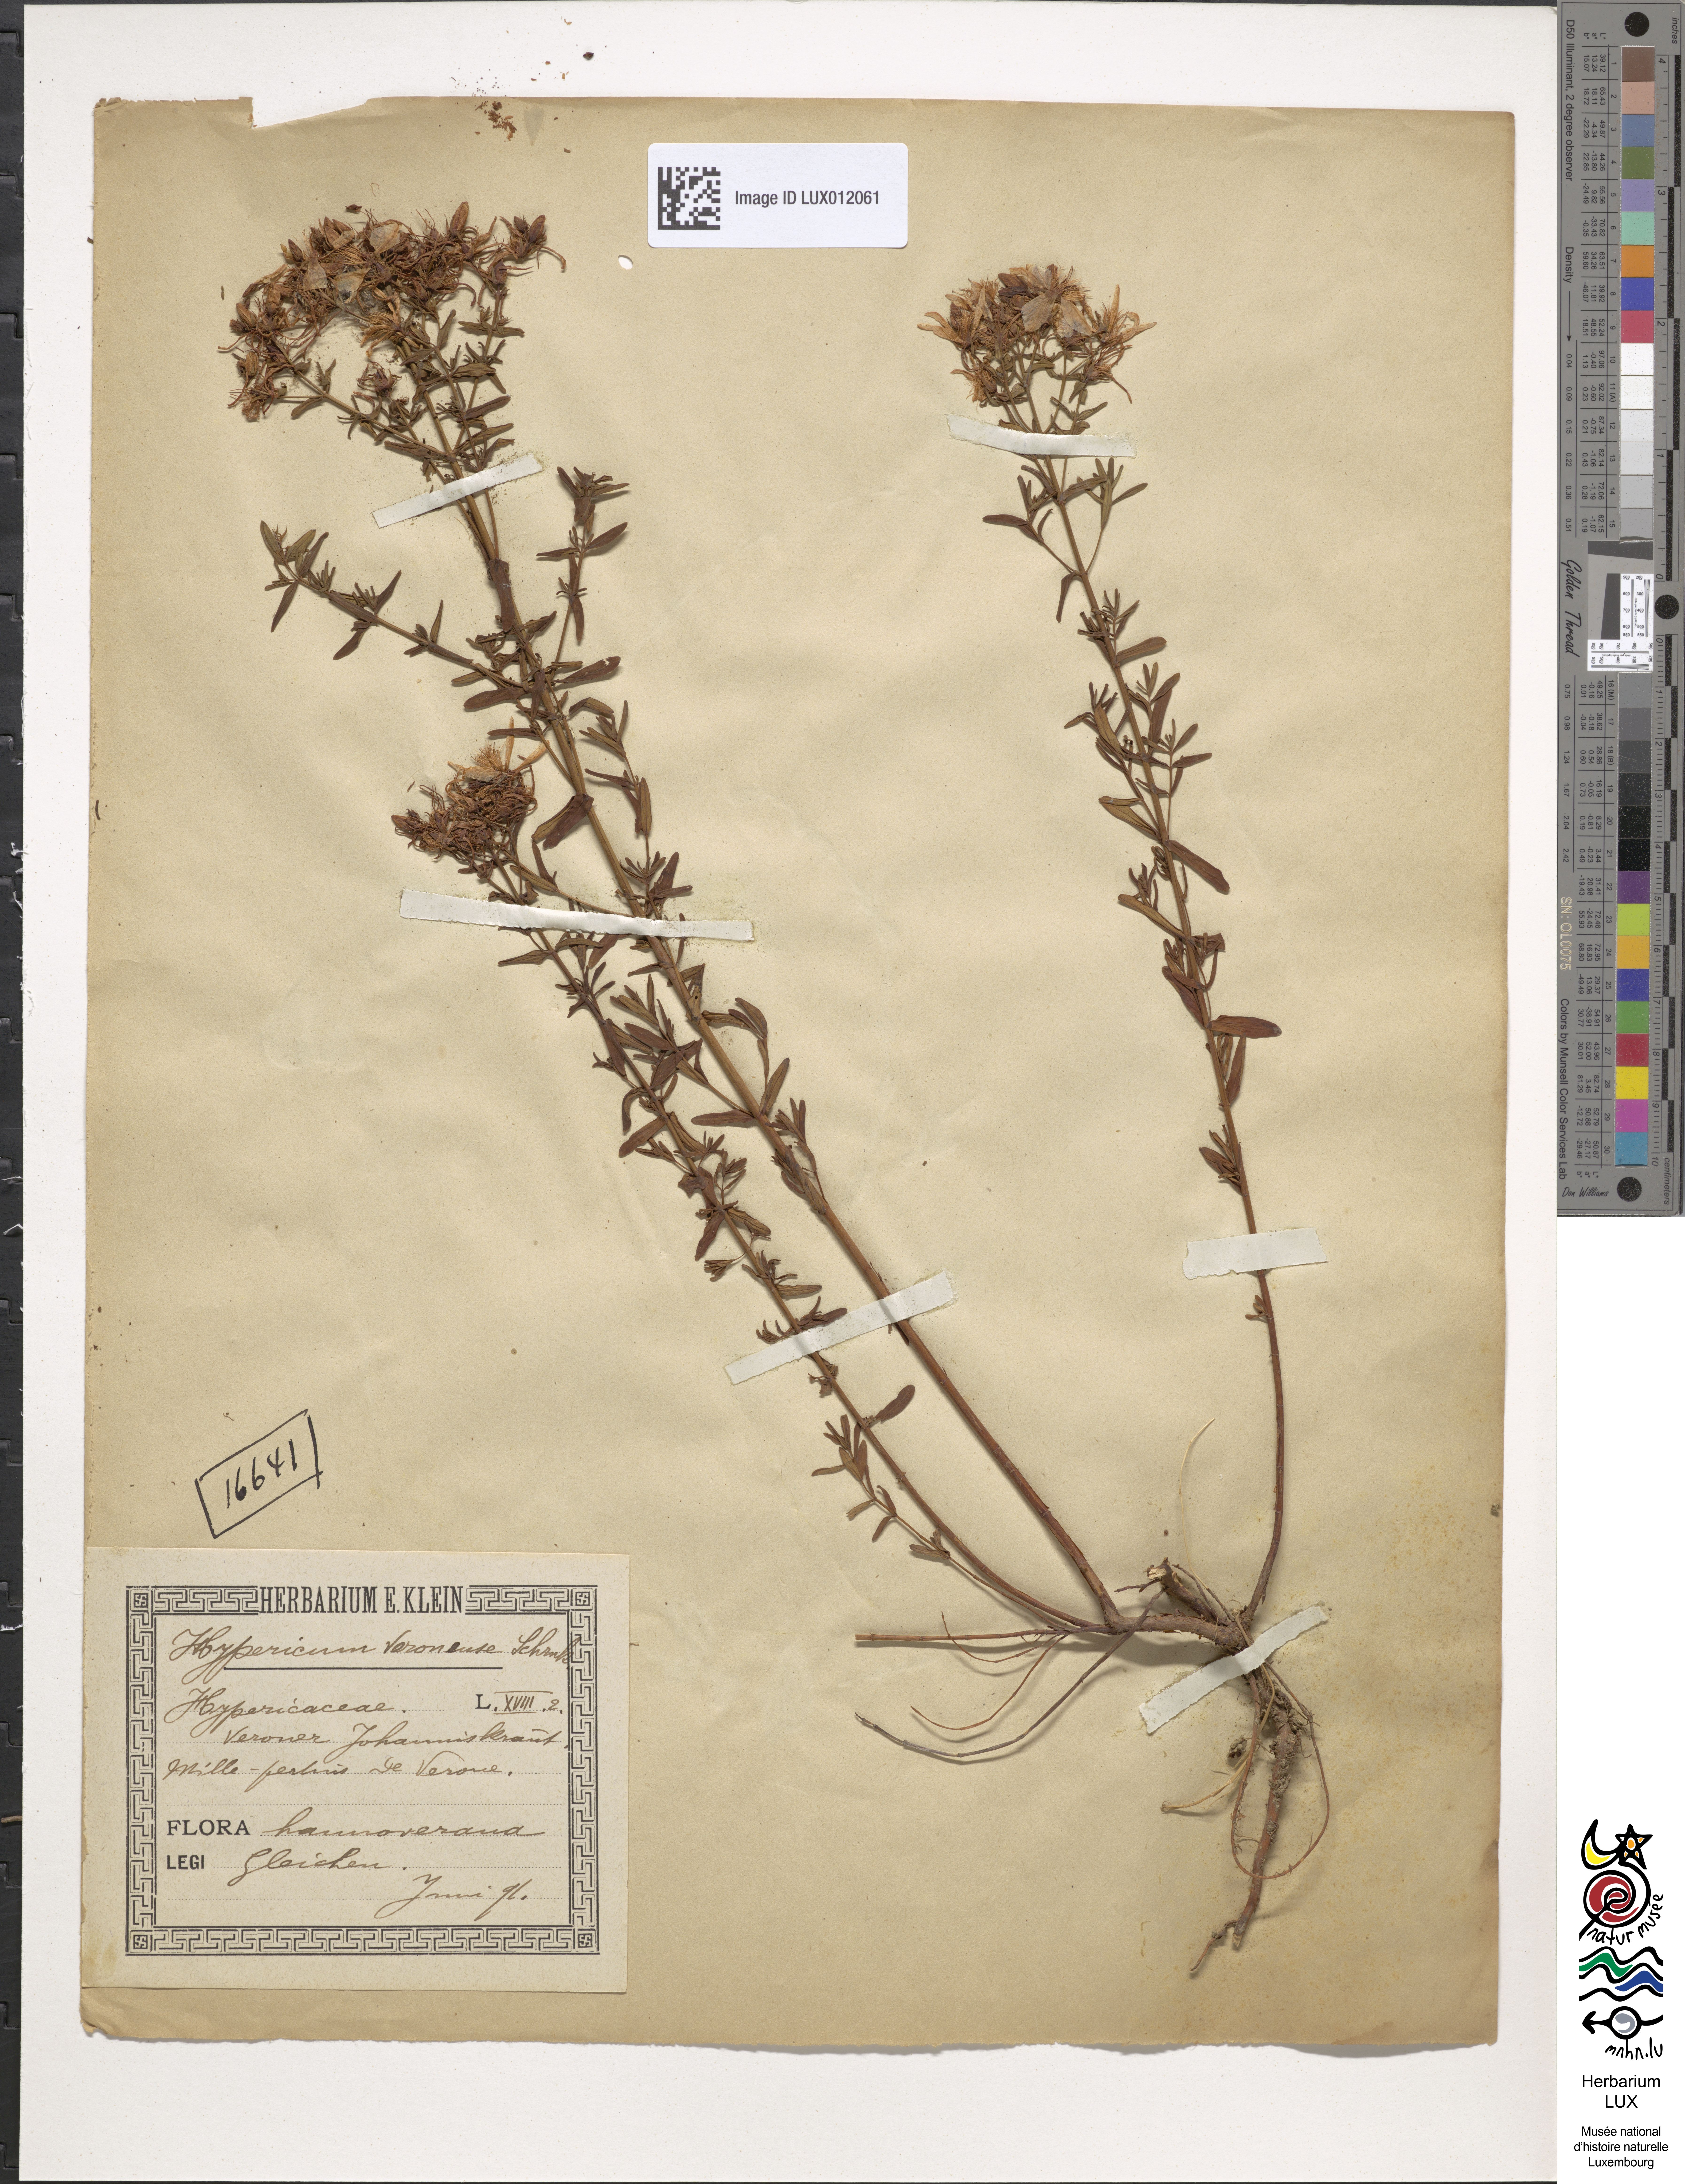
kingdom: Plantae
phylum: Tracheophyta
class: Magnoliopsida
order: Malpighiales
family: Hypericaceae
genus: Hypericum
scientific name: Hypericum veronense
